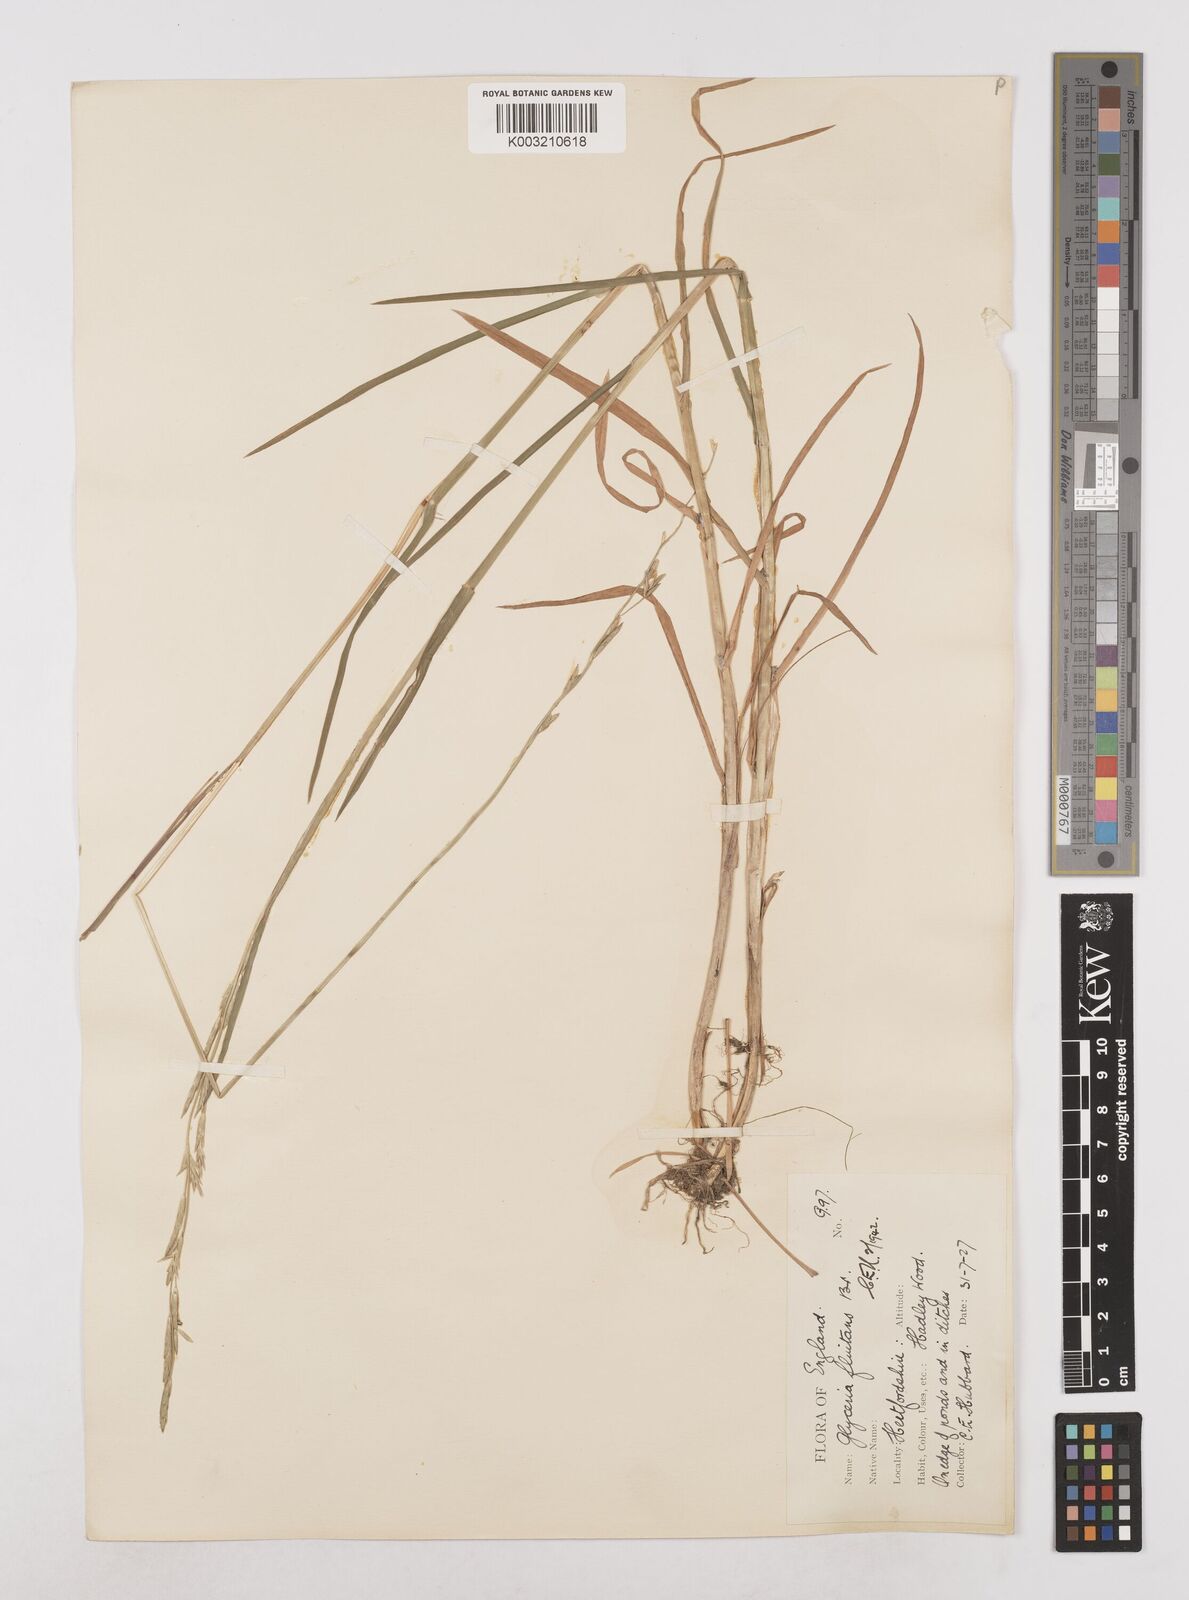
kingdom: Plantae
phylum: Tracheophyta
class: Liliopsida
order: Poales
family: Poaceae
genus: Glyceria
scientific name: Glyceria fluitans
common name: Floating sweet-grass
